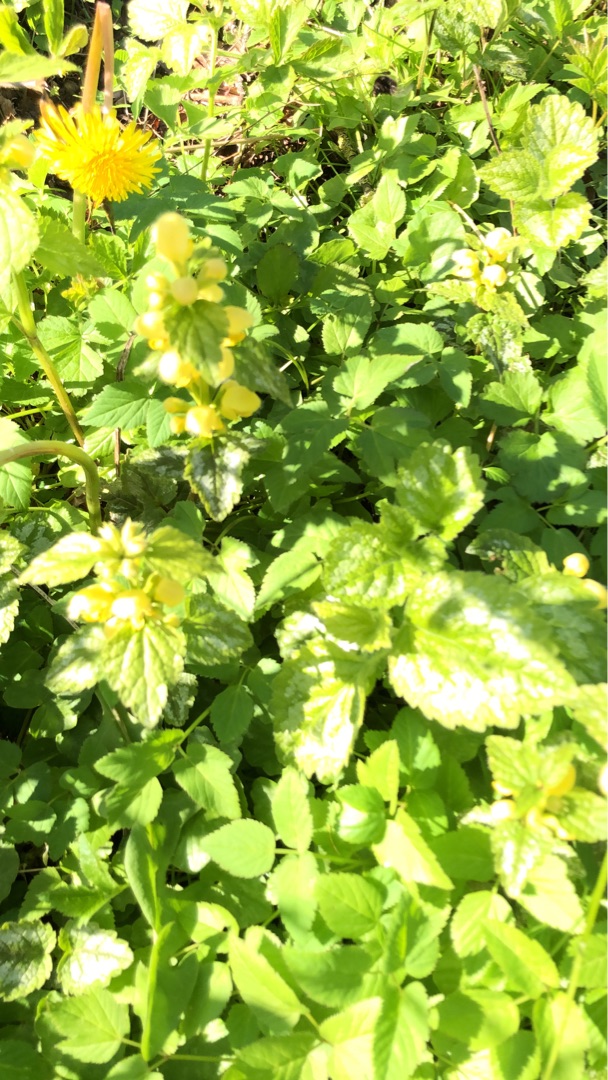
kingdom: Plantae
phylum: Tracheophyta
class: Magnoliopsida
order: Lamiales
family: Lamiaceae
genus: Lamium
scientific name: Lamium galeobdolon
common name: Have-guldnælde
